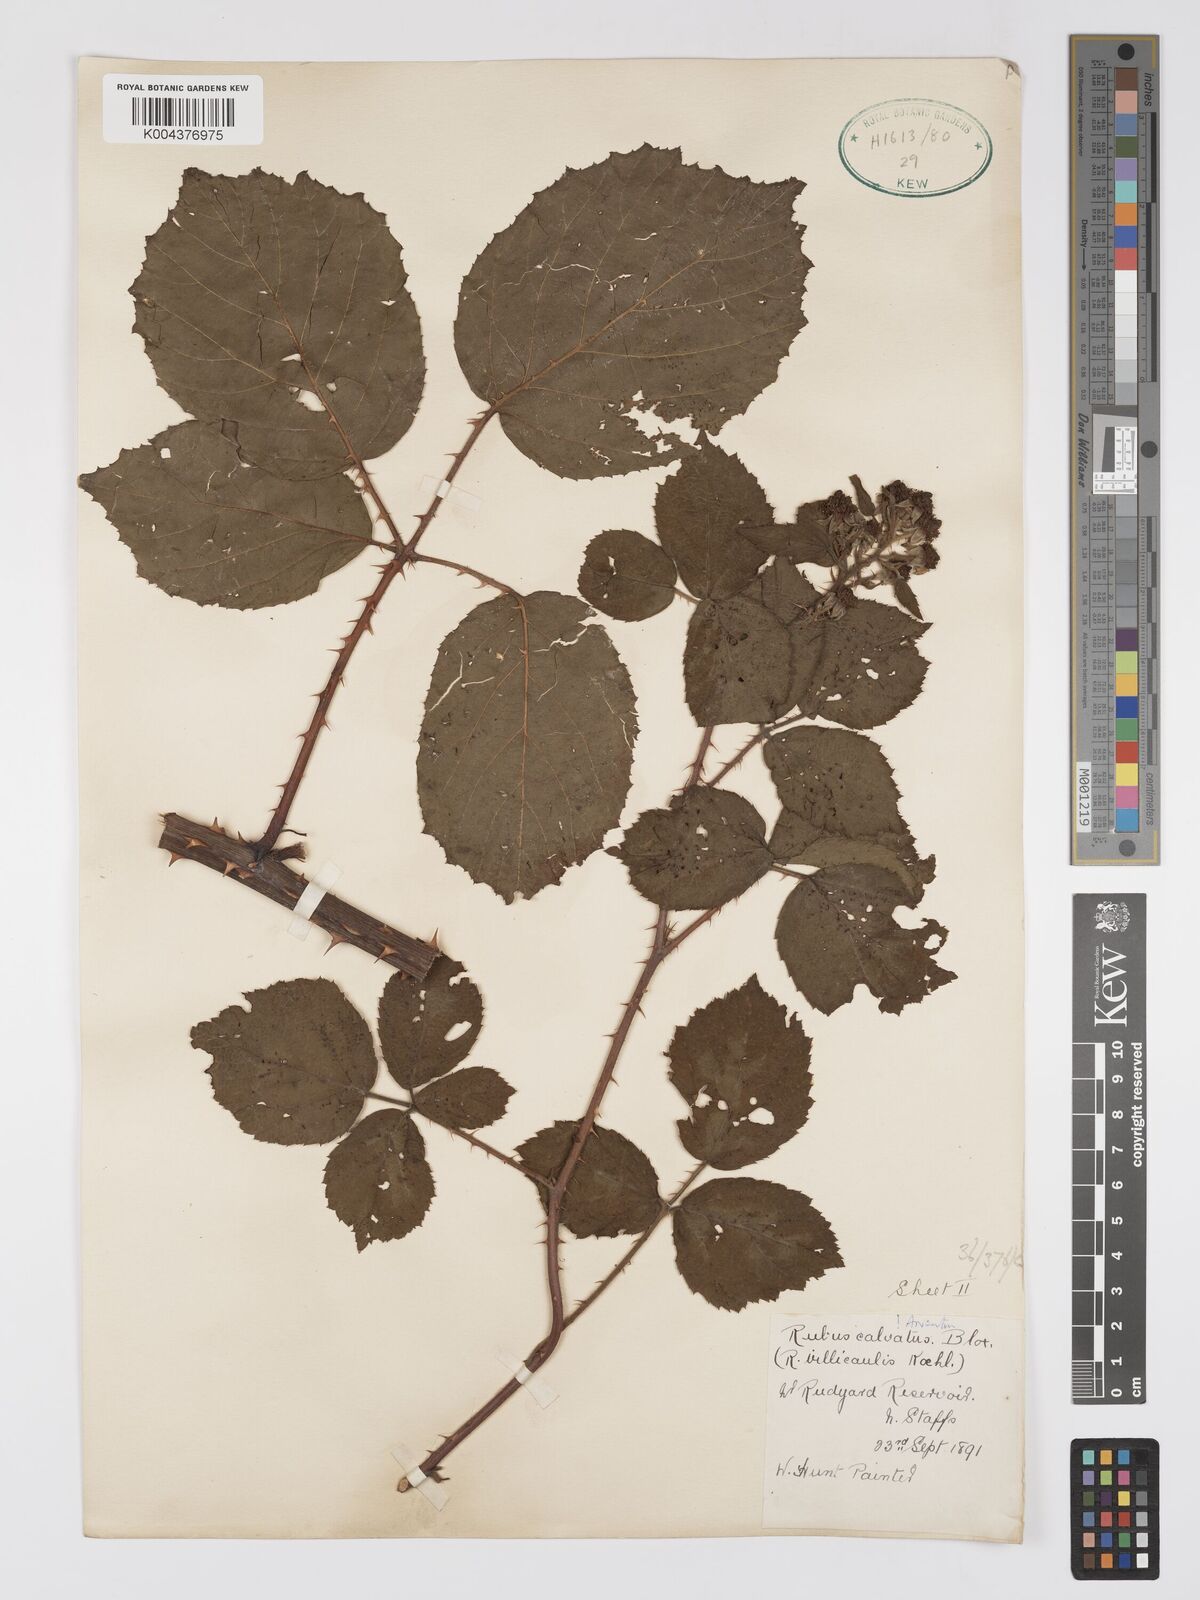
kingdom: Plantae
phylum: Tracheophyta
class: Magnoliopsida
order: Rosales
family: Rosaceae
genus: Rubus
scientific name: Rubus calvatus
